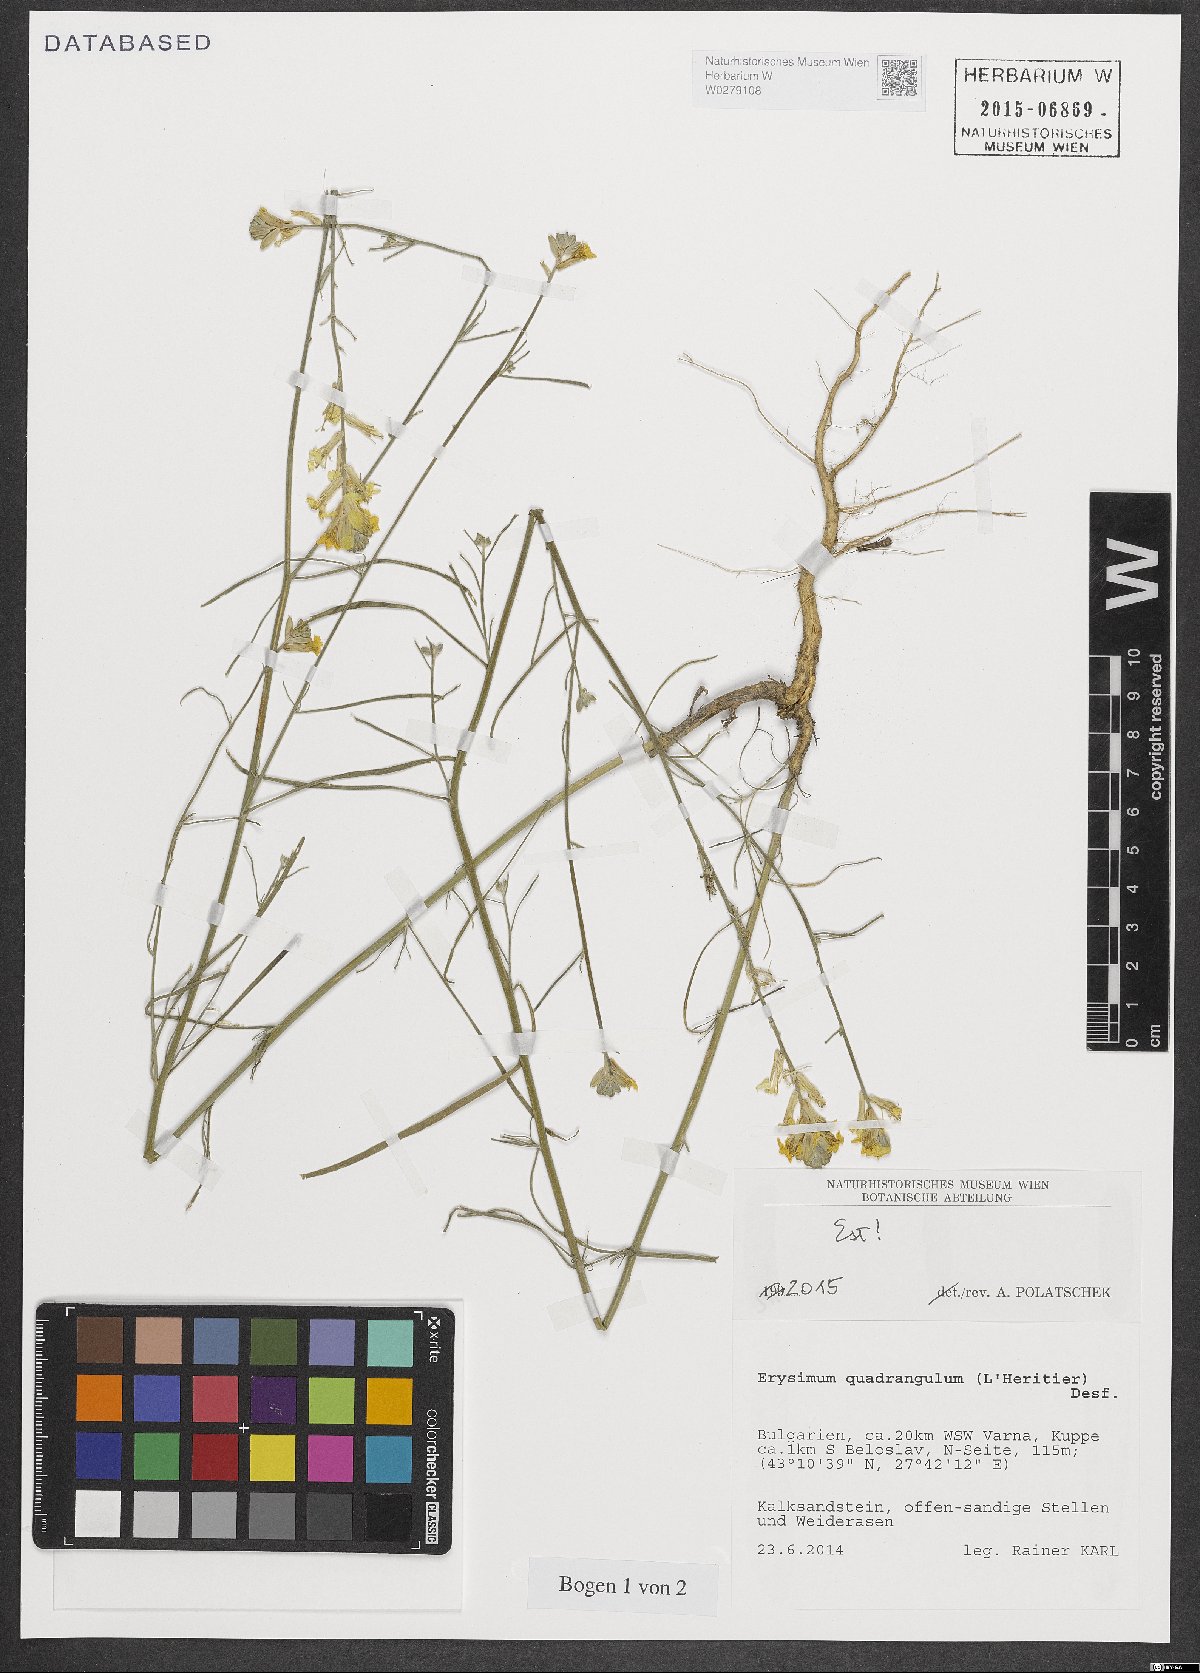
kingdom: Plantae
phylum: Tracheophyta
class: Magnoliopsida
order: Brassicales
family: Brassicaceae
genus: Erysimum
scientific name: Erysimum quadrangulum
